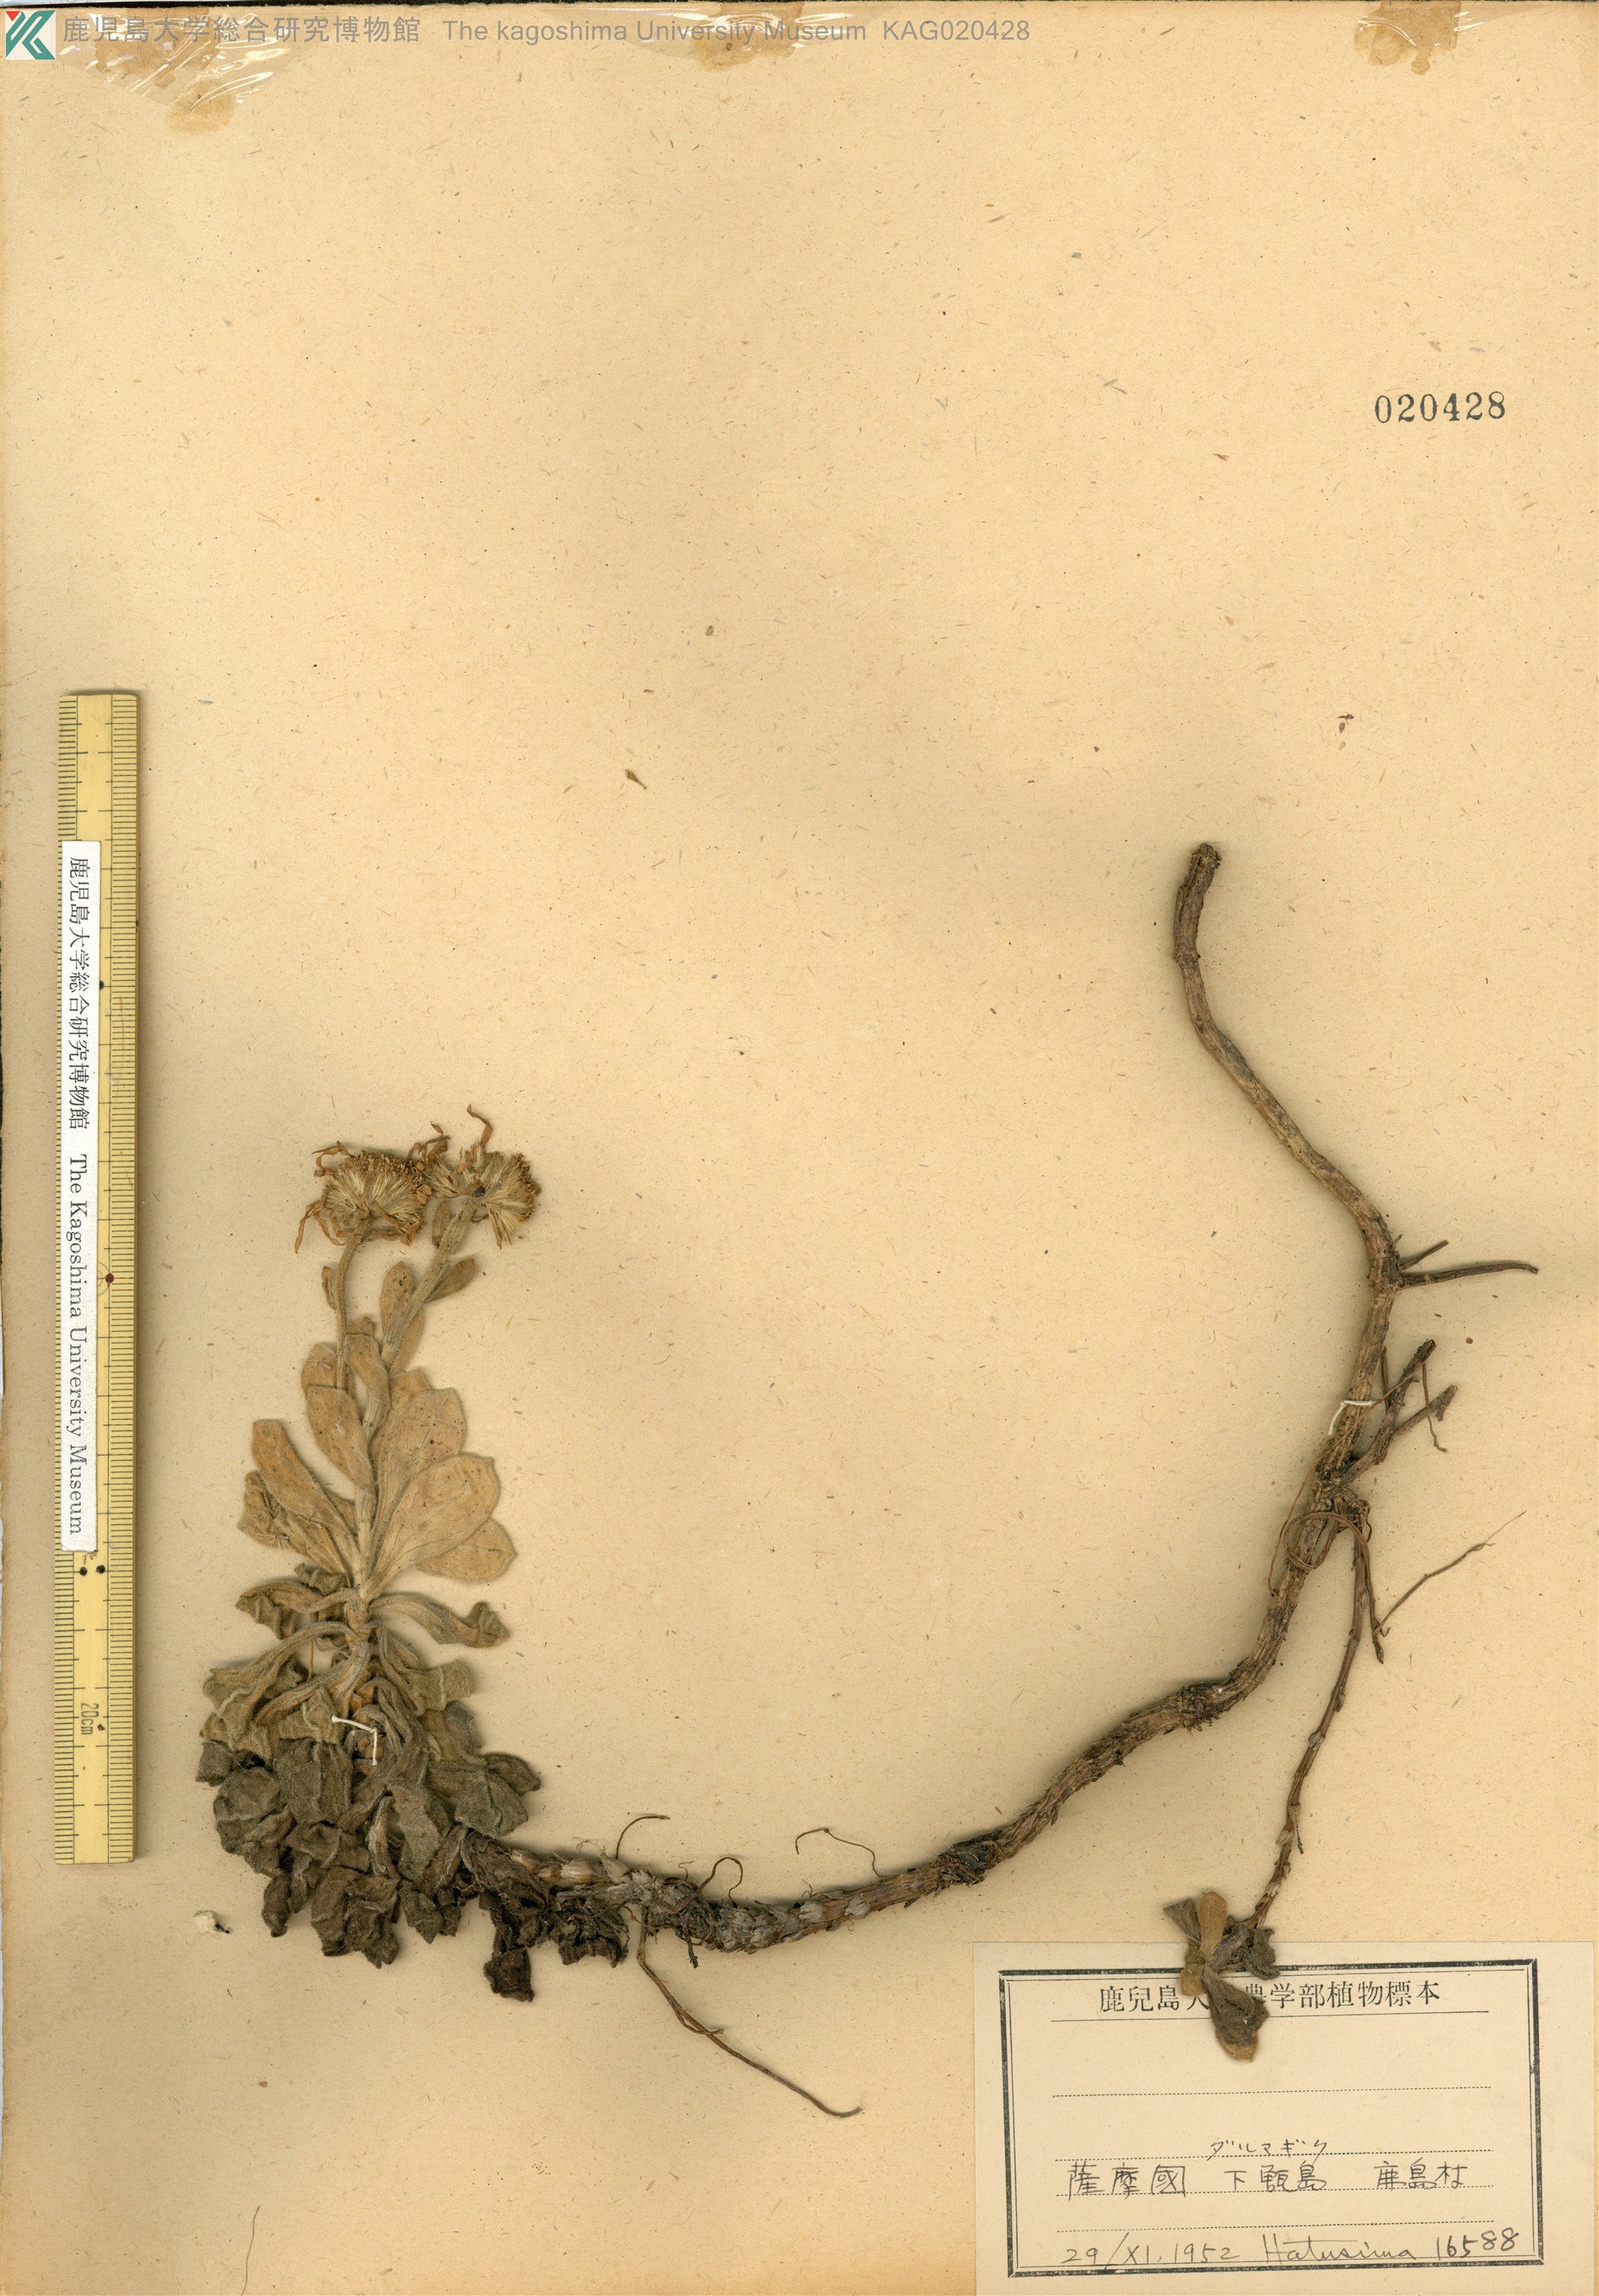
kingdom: Plantae
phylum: Tracheophyta
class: Magnoliopsida
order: Asterales
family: Asteraceae
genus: Aster
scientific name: Aster spathulifolius
